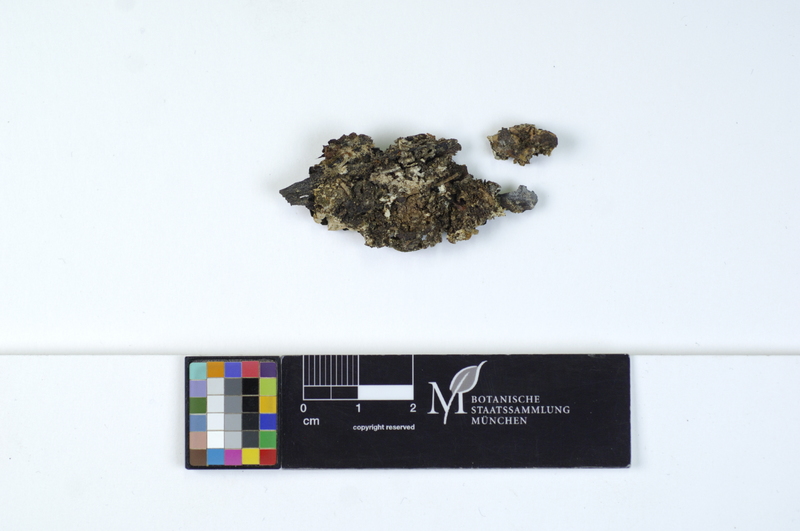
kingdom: Plantae
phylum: Tracheophyta
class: Pinopsida
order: Pinales
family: Pinaceae
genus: Picea
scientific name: Picea
